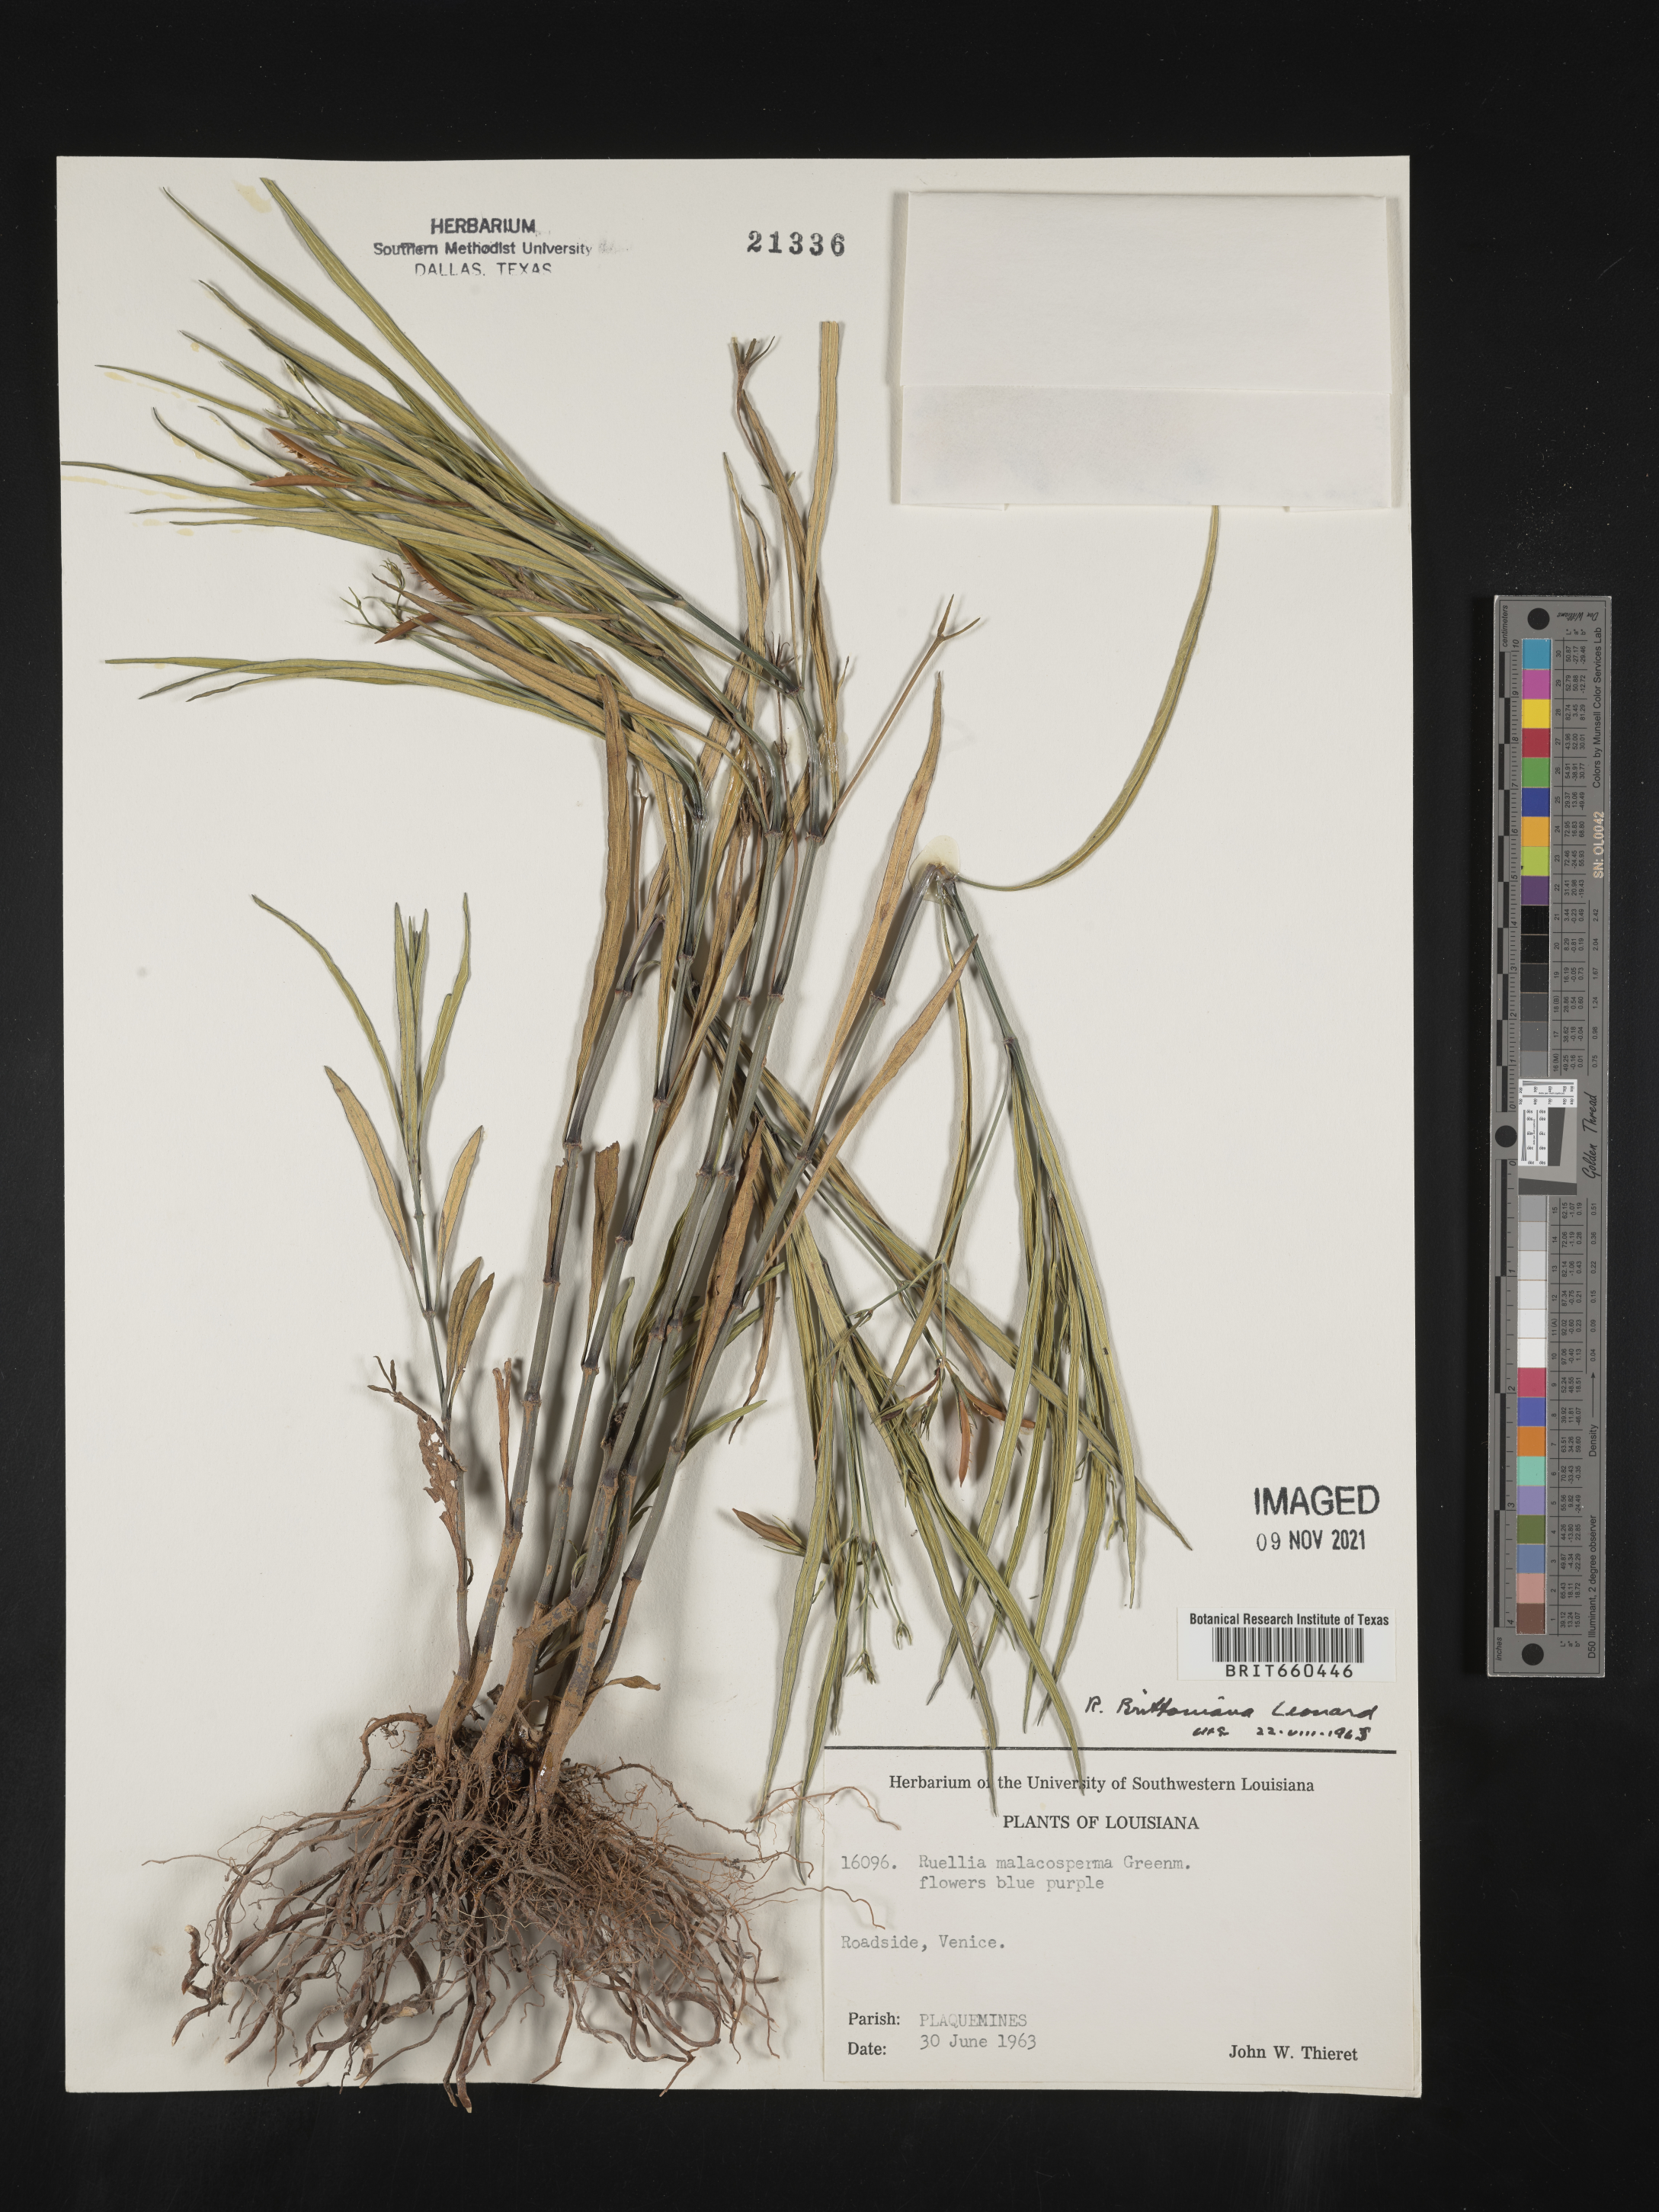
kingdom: Plantae
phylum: Tracheophyta
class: Magnoliopsida
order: Lamiales
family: Acanthaceae
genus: Ruellia
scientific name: Ruellia simplex
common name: Softseed wild petunia
